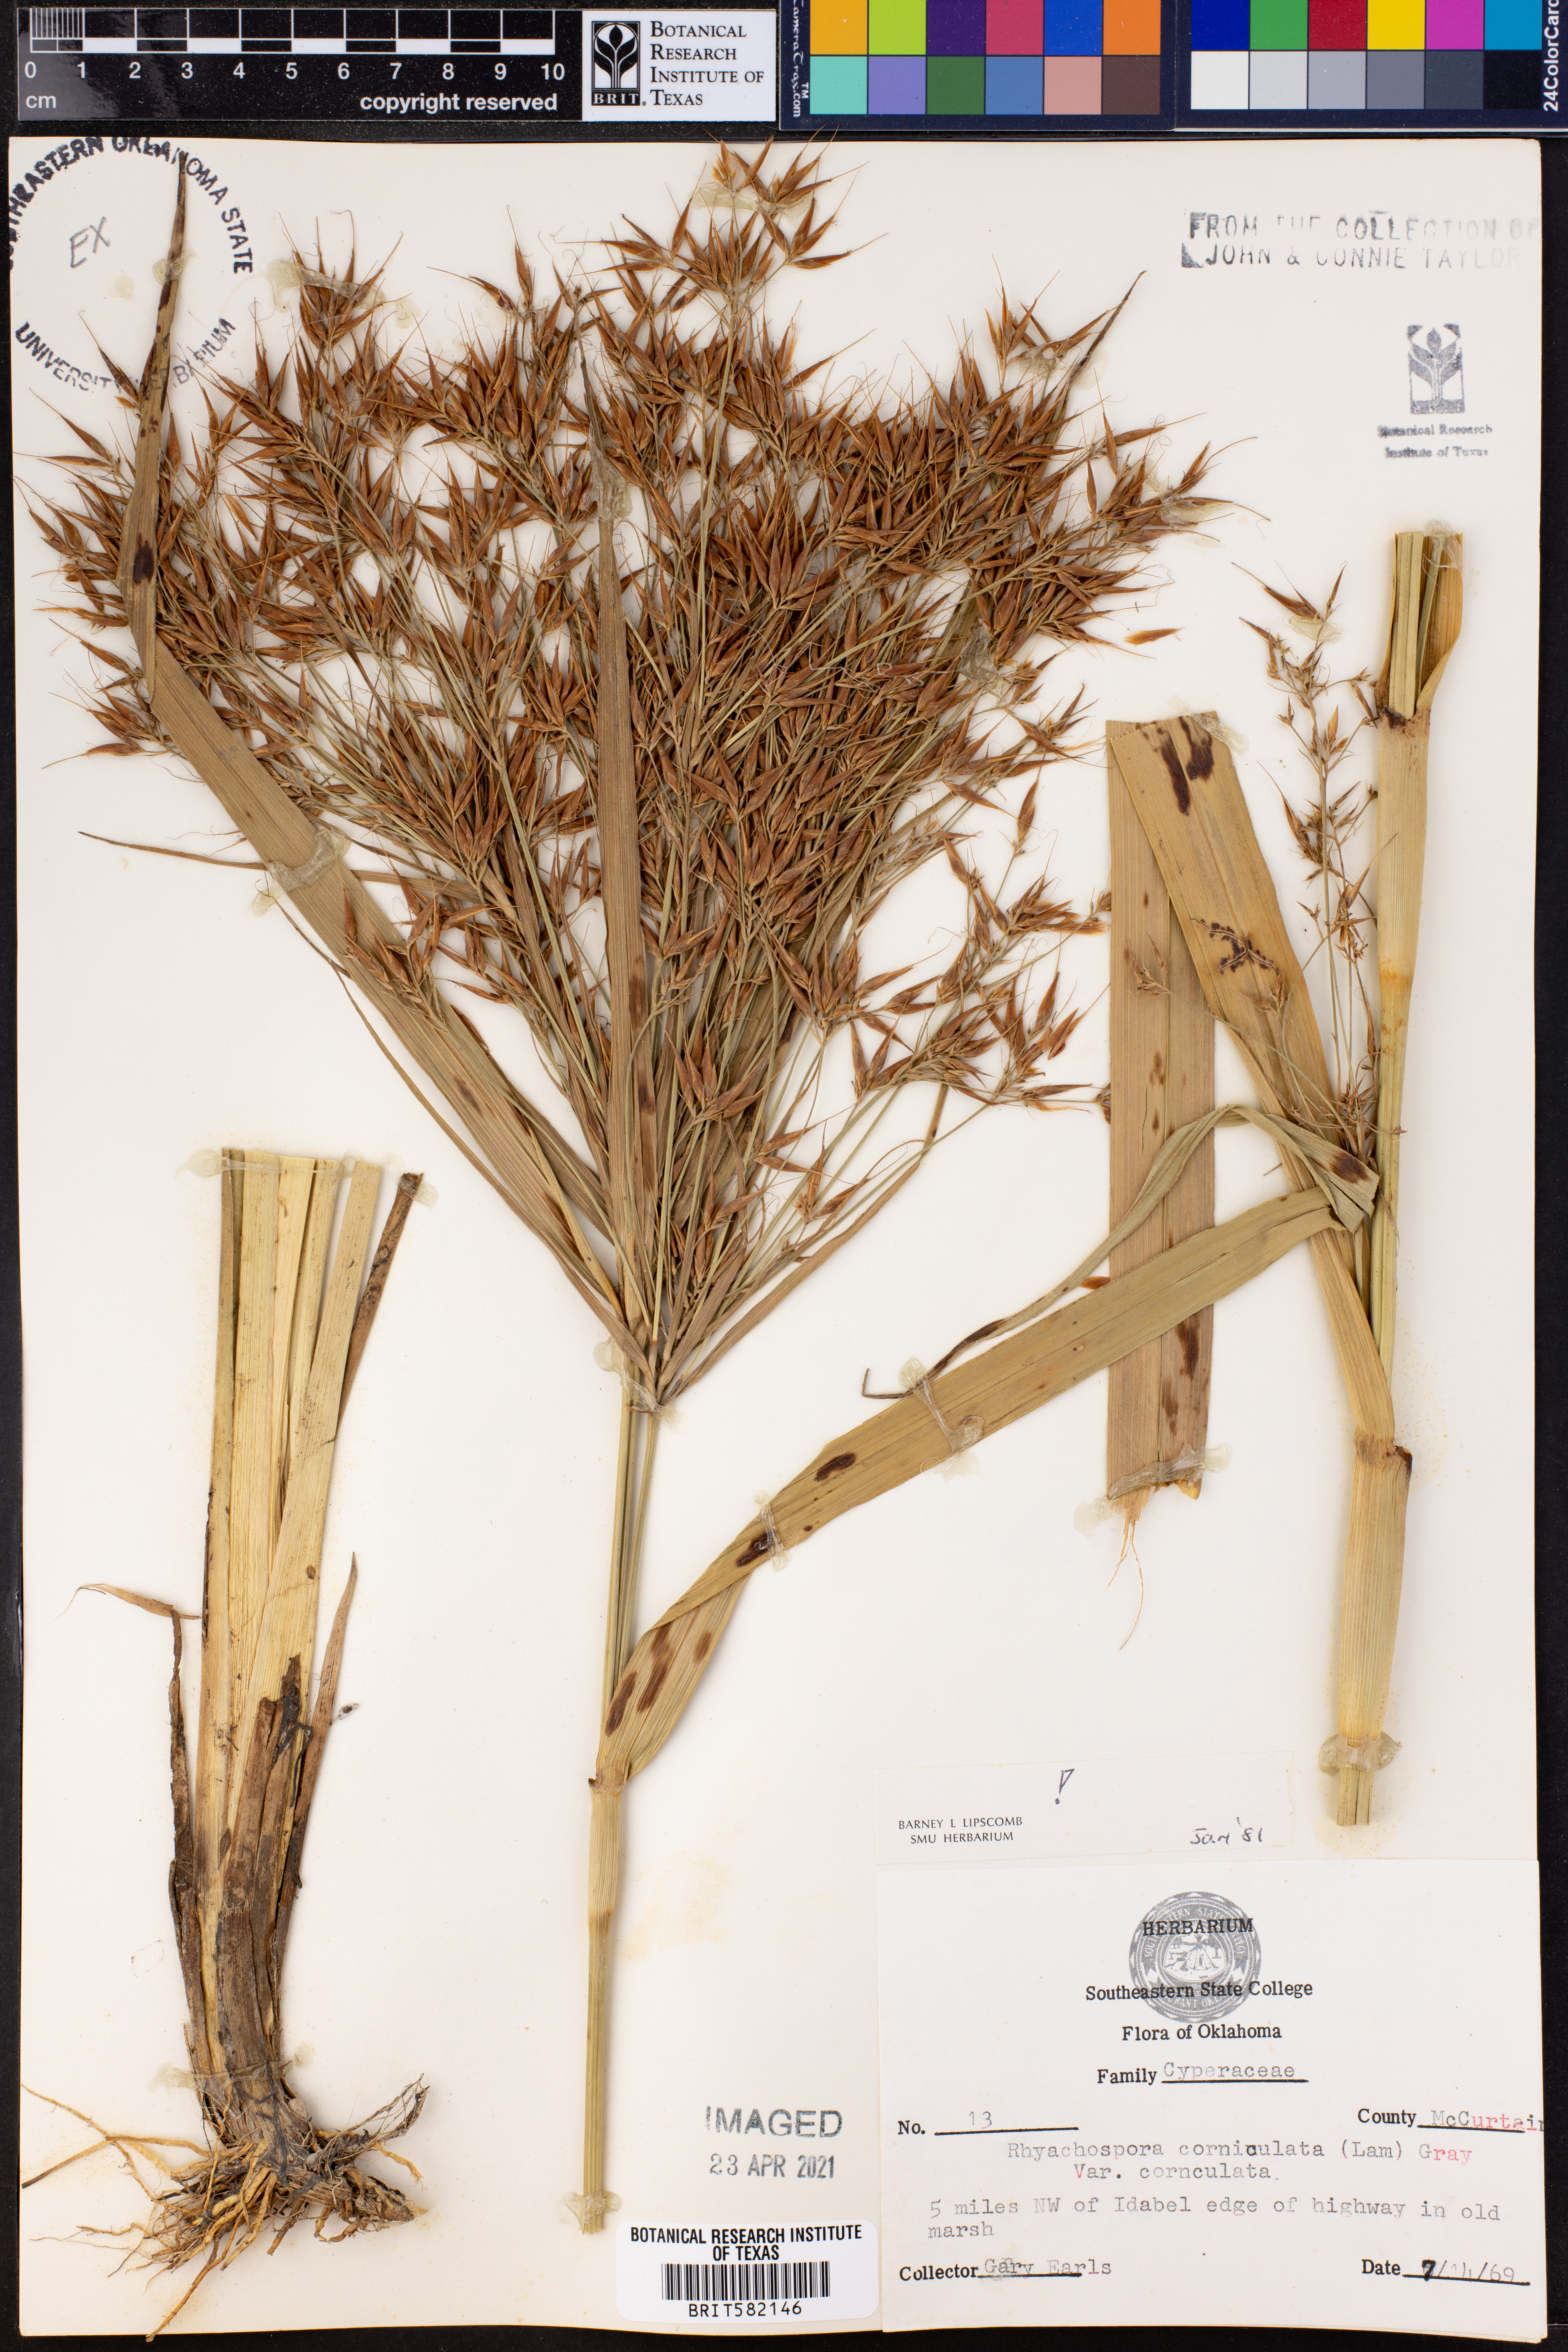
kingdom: Plantae
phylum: Tracheophyta
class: Liliopsida
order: Poales
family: Cyperaceae
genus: Rhynchospora
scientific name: Rhynchospora corniculata
